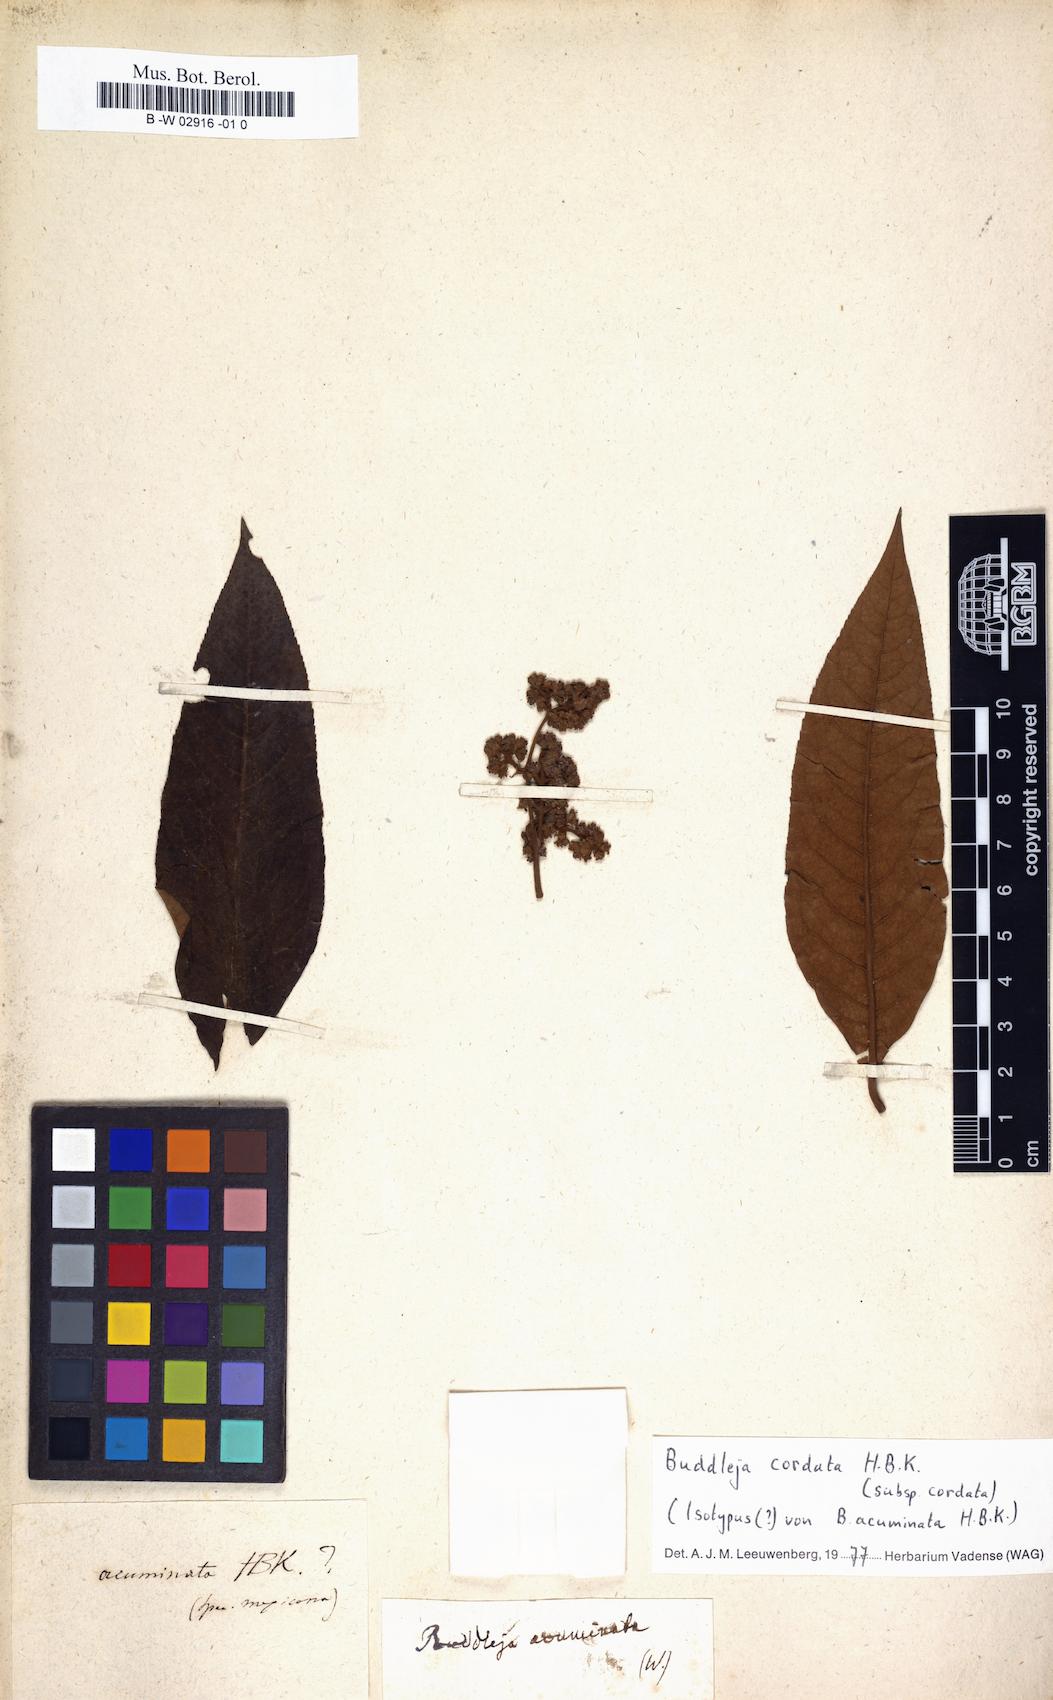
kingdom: Plantae
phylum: Tracheophyta
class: Magnoliopsida
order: Lamiales
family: Scrophulariaceae
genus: Buddleja
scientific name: Buddleja acuminata
